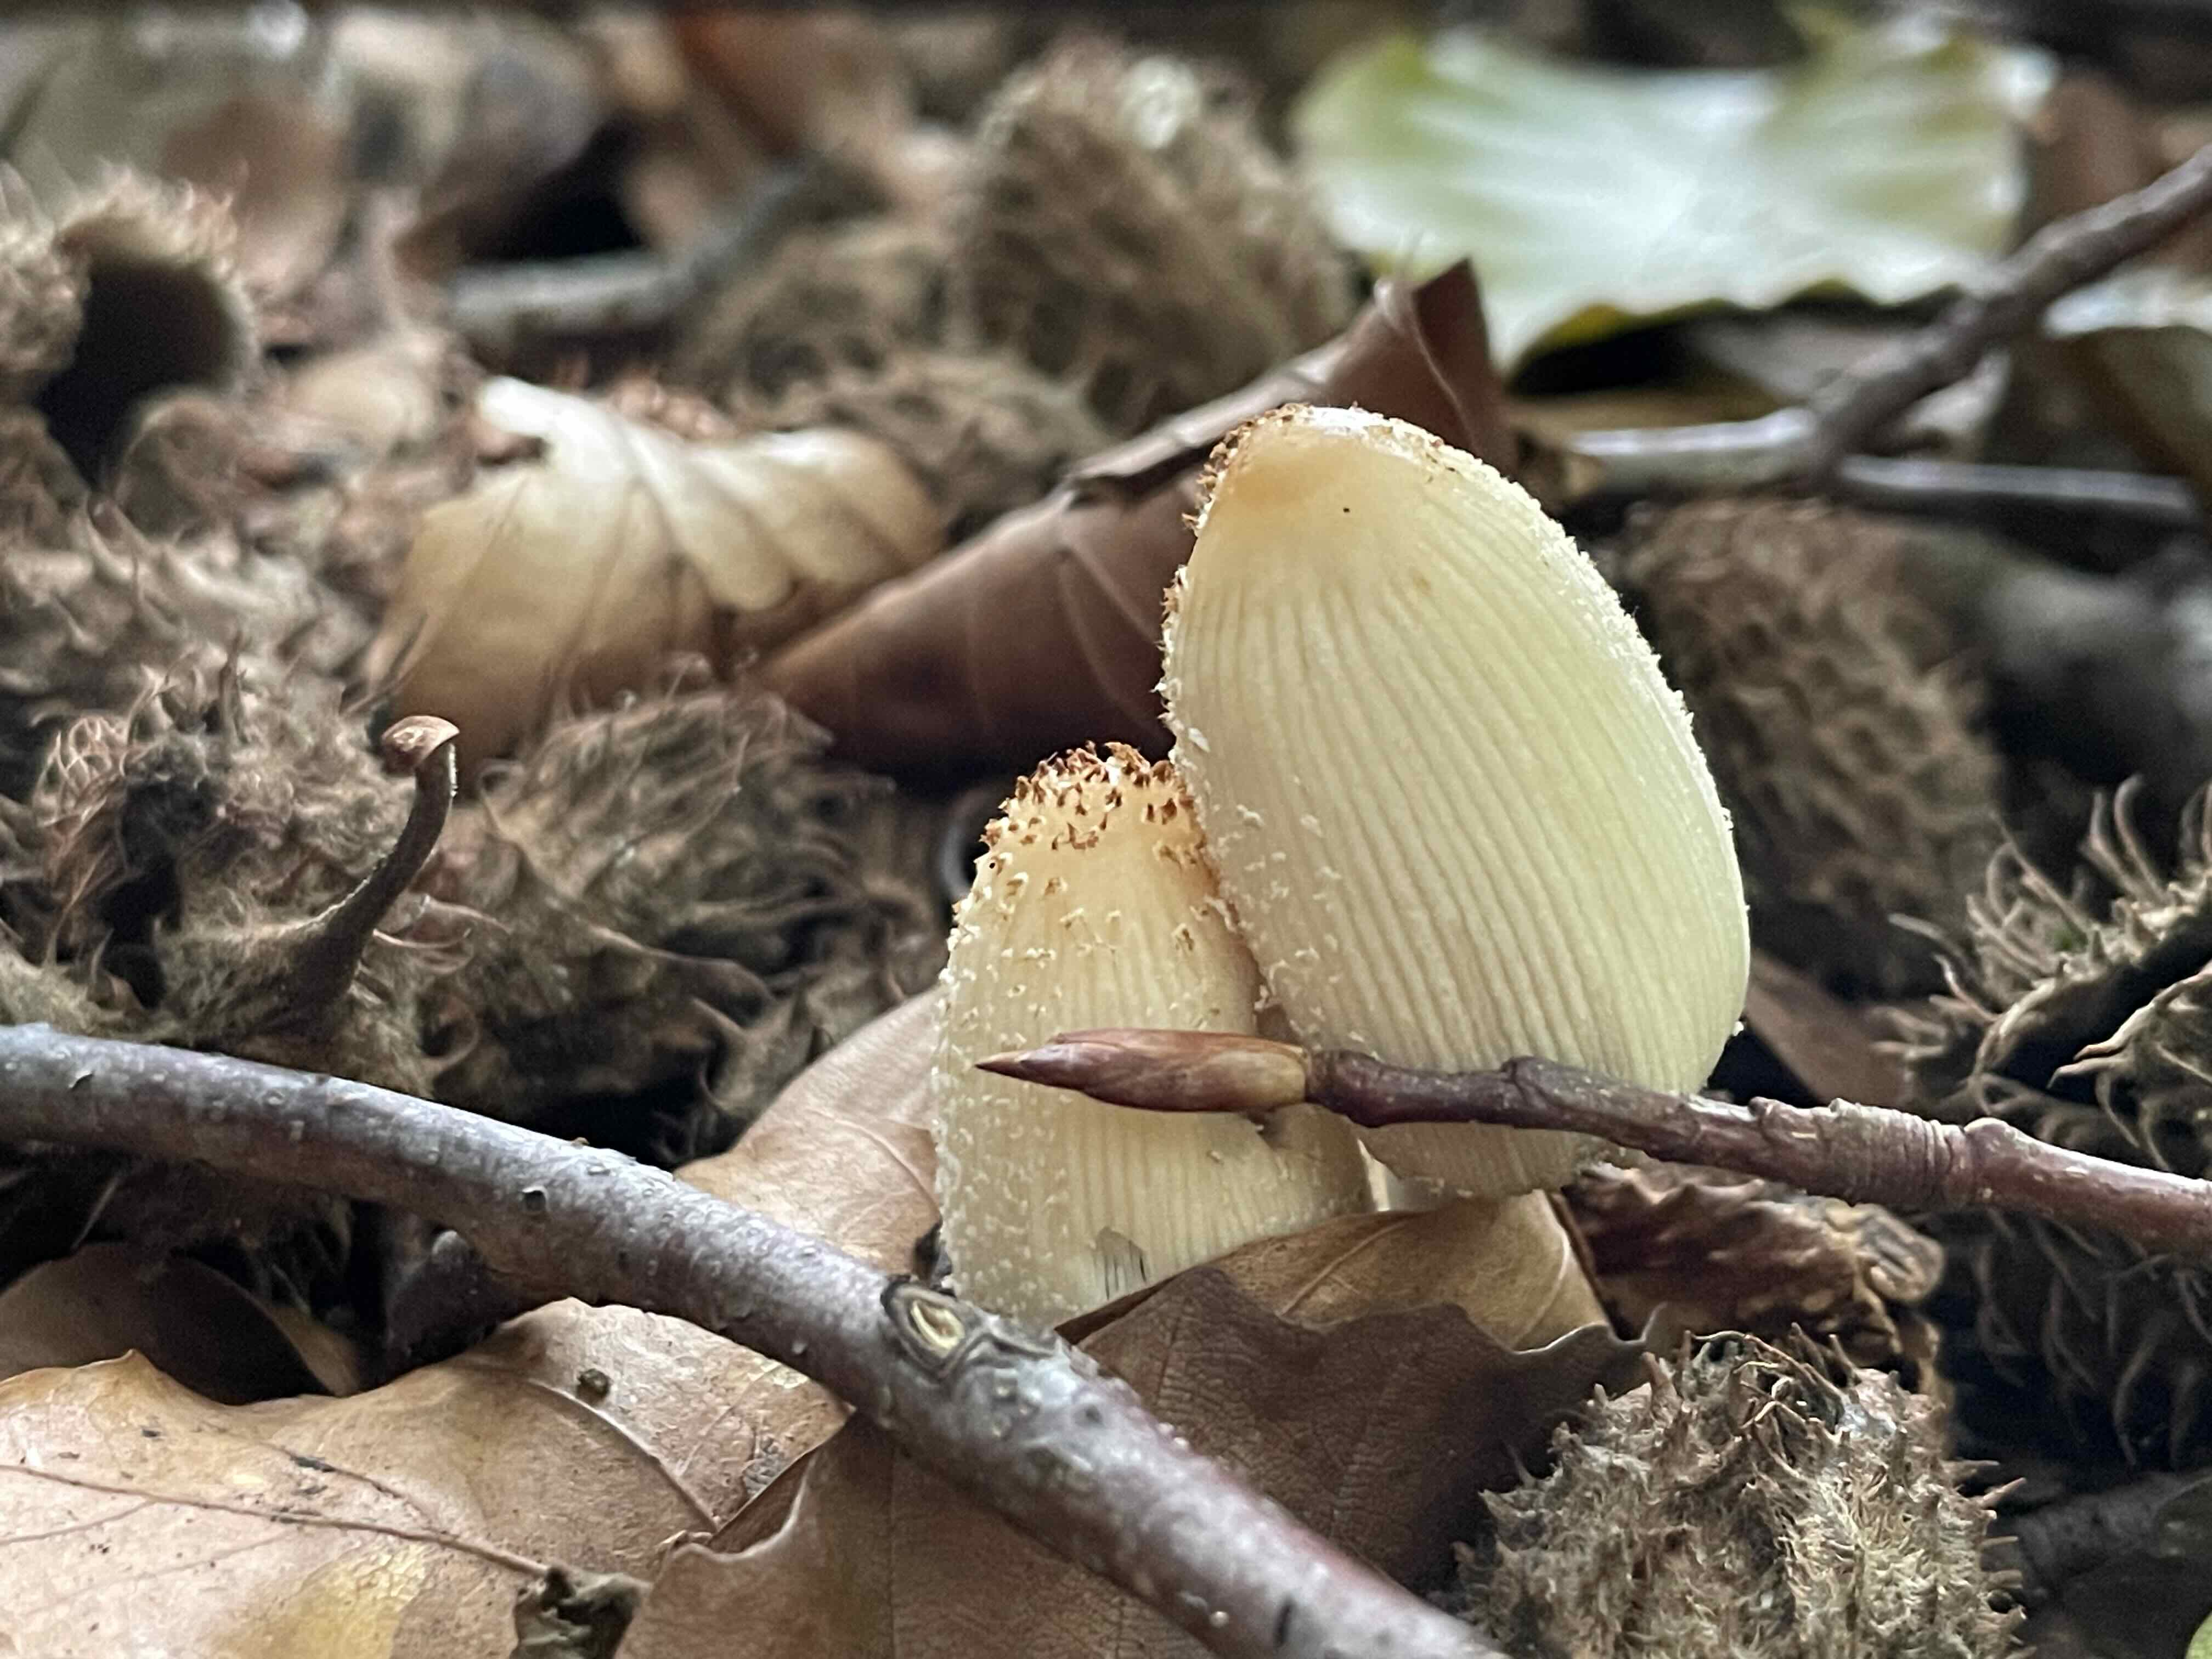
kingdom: Fungi
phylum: Basidiomycota
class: Agaricomycetes
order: Agaricales
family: Psathyrellaceae
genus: Coprinellus
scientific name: Coprinellus
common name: blækhat
